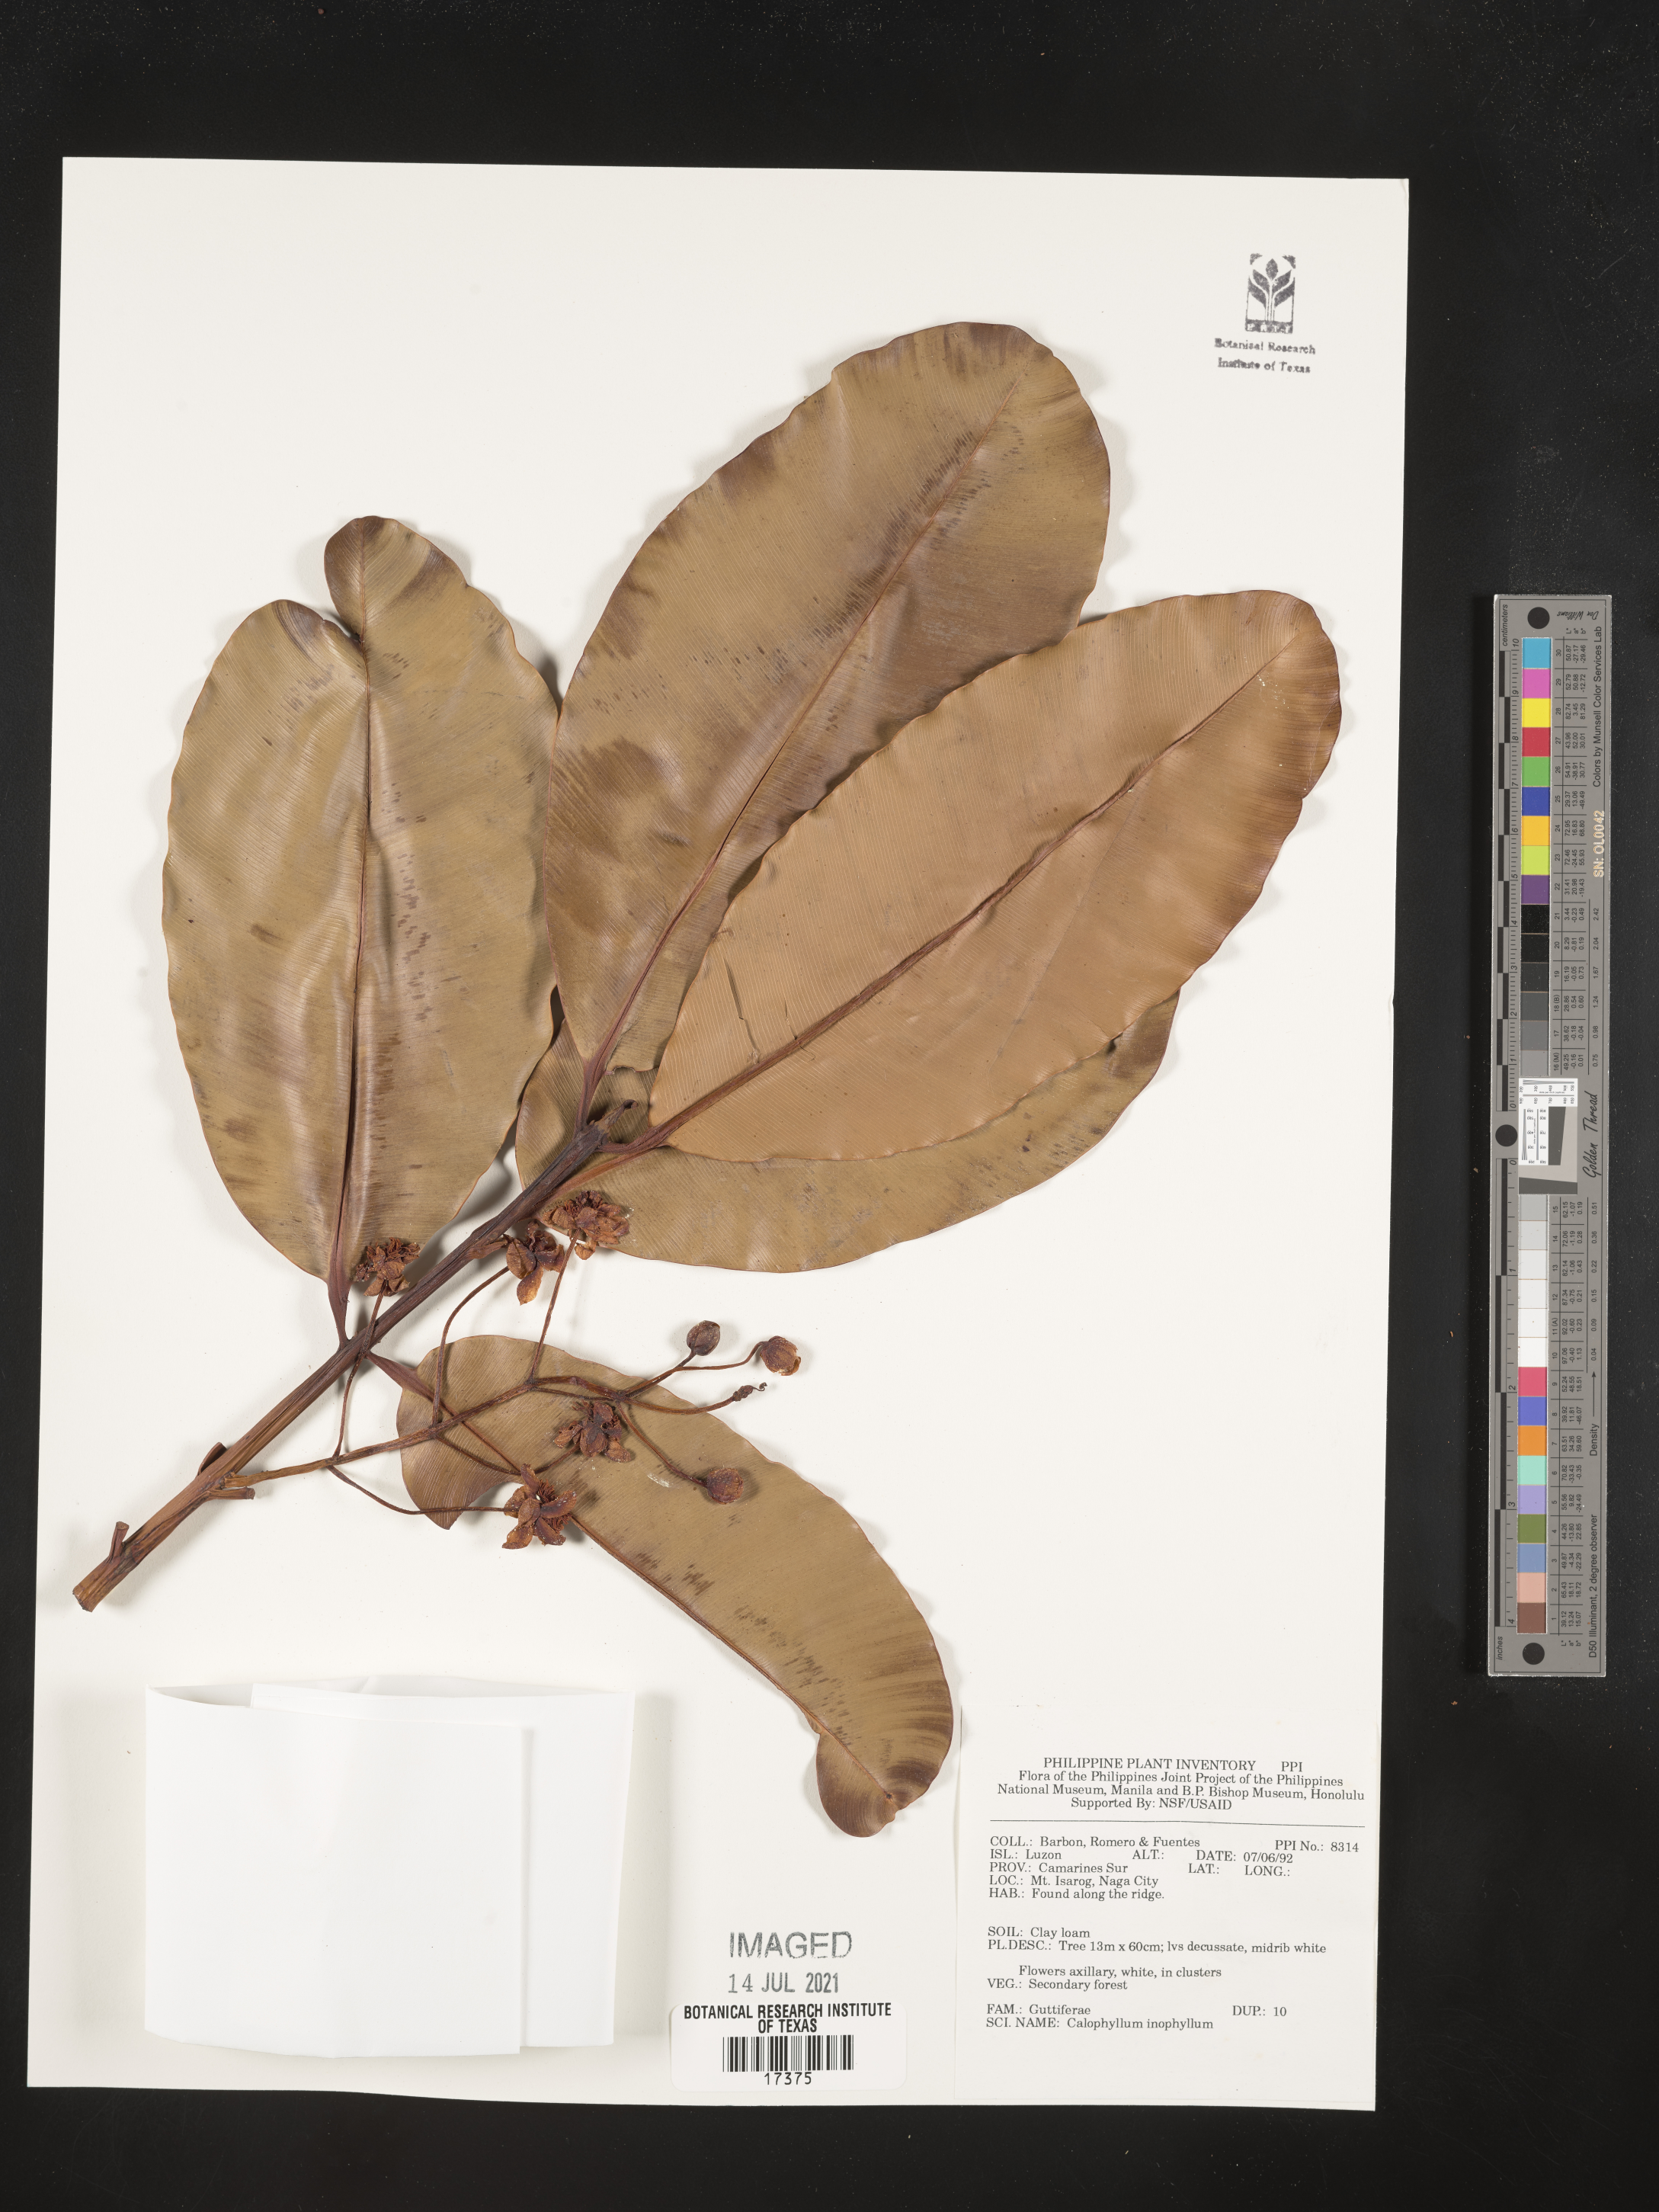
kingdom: Plantae
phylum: Tracheophyta
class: Magnoliopsida
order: Malpighiales
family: Calophyllaceae
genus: Calophyllum
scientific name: Calophyllum inophyllum
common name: Alexandrian laurel
